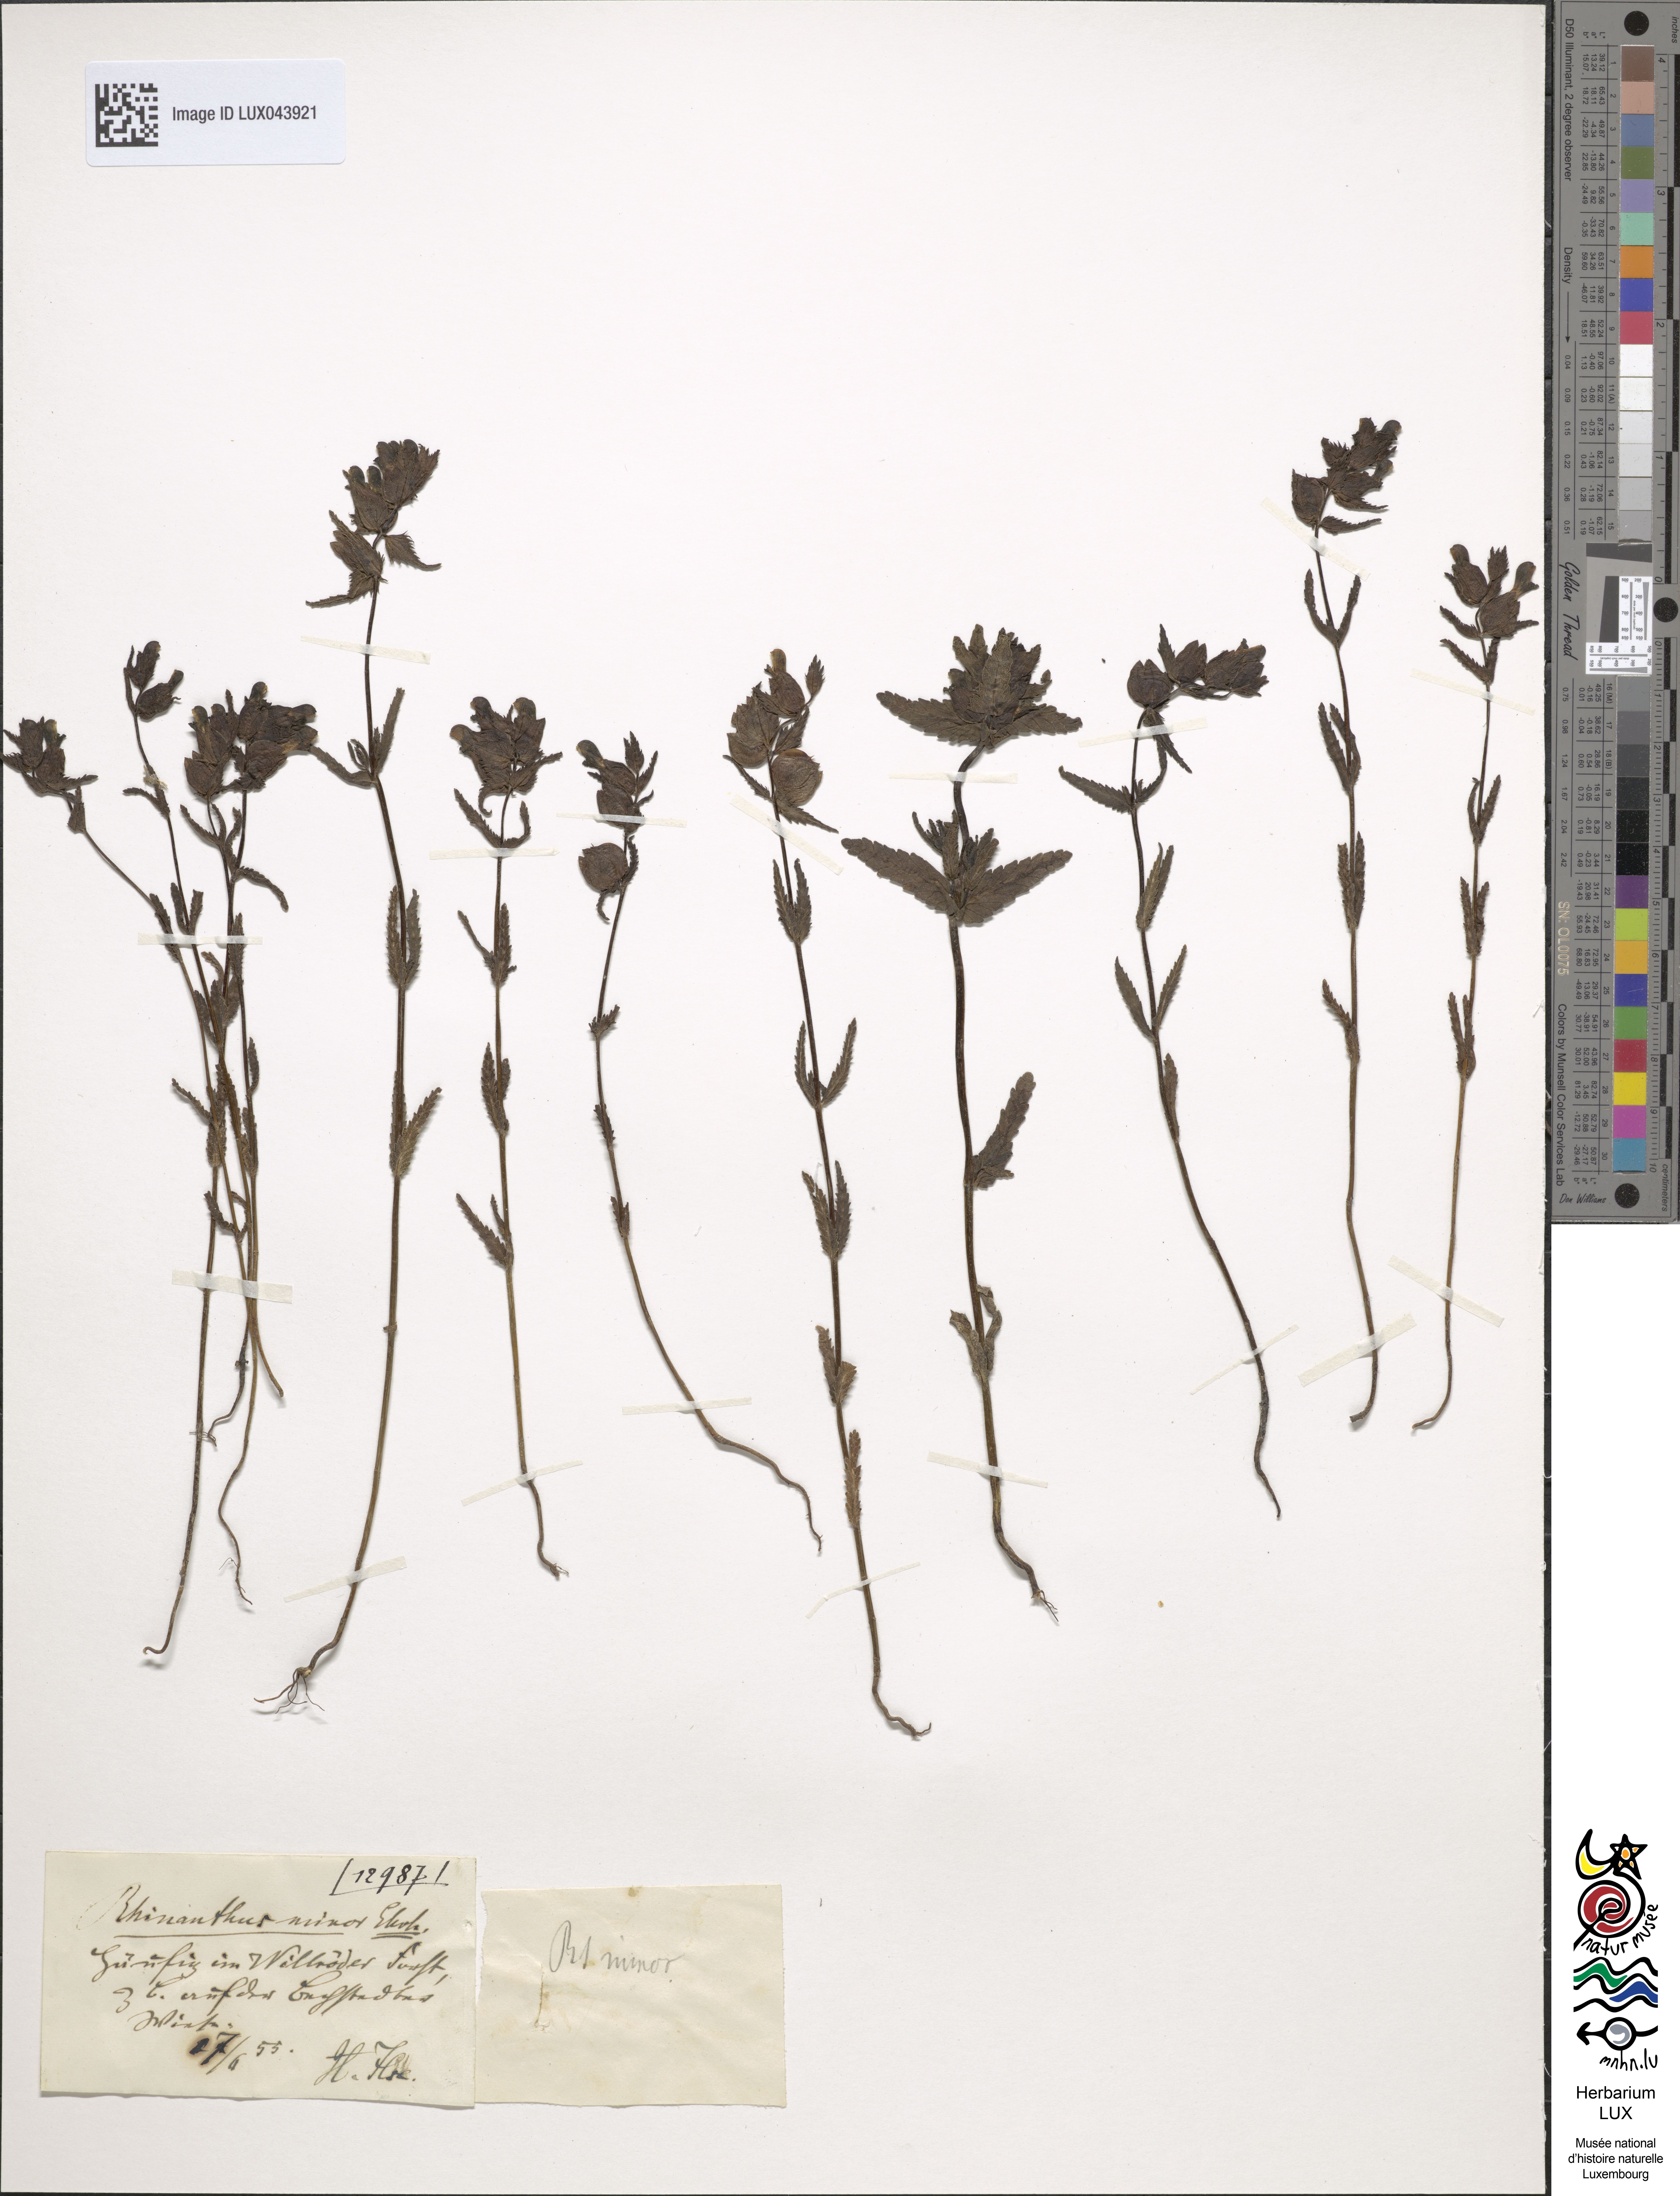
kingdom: Plantae
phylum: Tracheophyta
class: Magnoliopsida
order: Lamiales
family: Orobanchaceae
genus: Rhinanthus
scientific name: Rhinanthus minor
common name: Yellow-rattle
